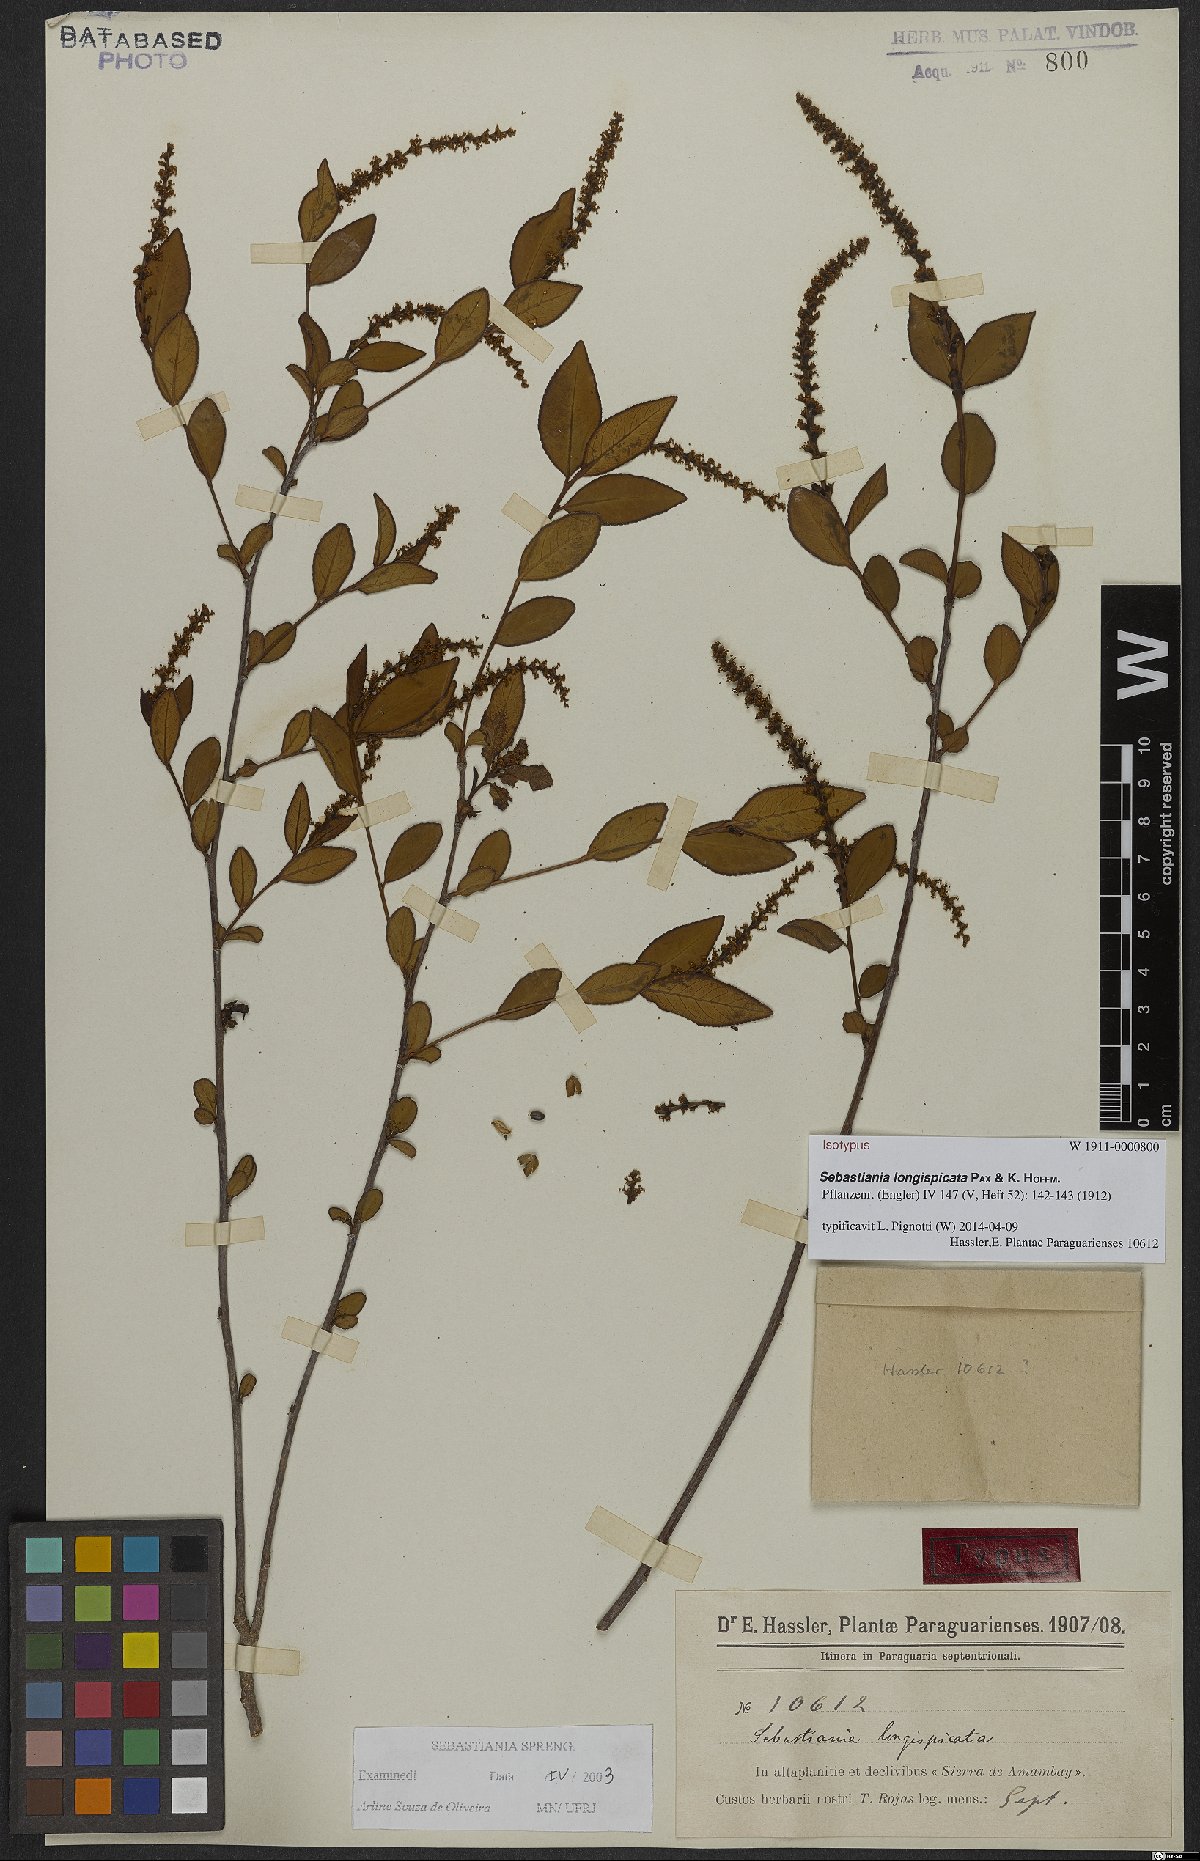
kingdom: Plantae
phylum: Tracheophyta
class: Magnoliopsida
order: Malpighiales
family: Euphorbiaceae
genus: Sebastiania
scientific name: Sebastiania longispicata
